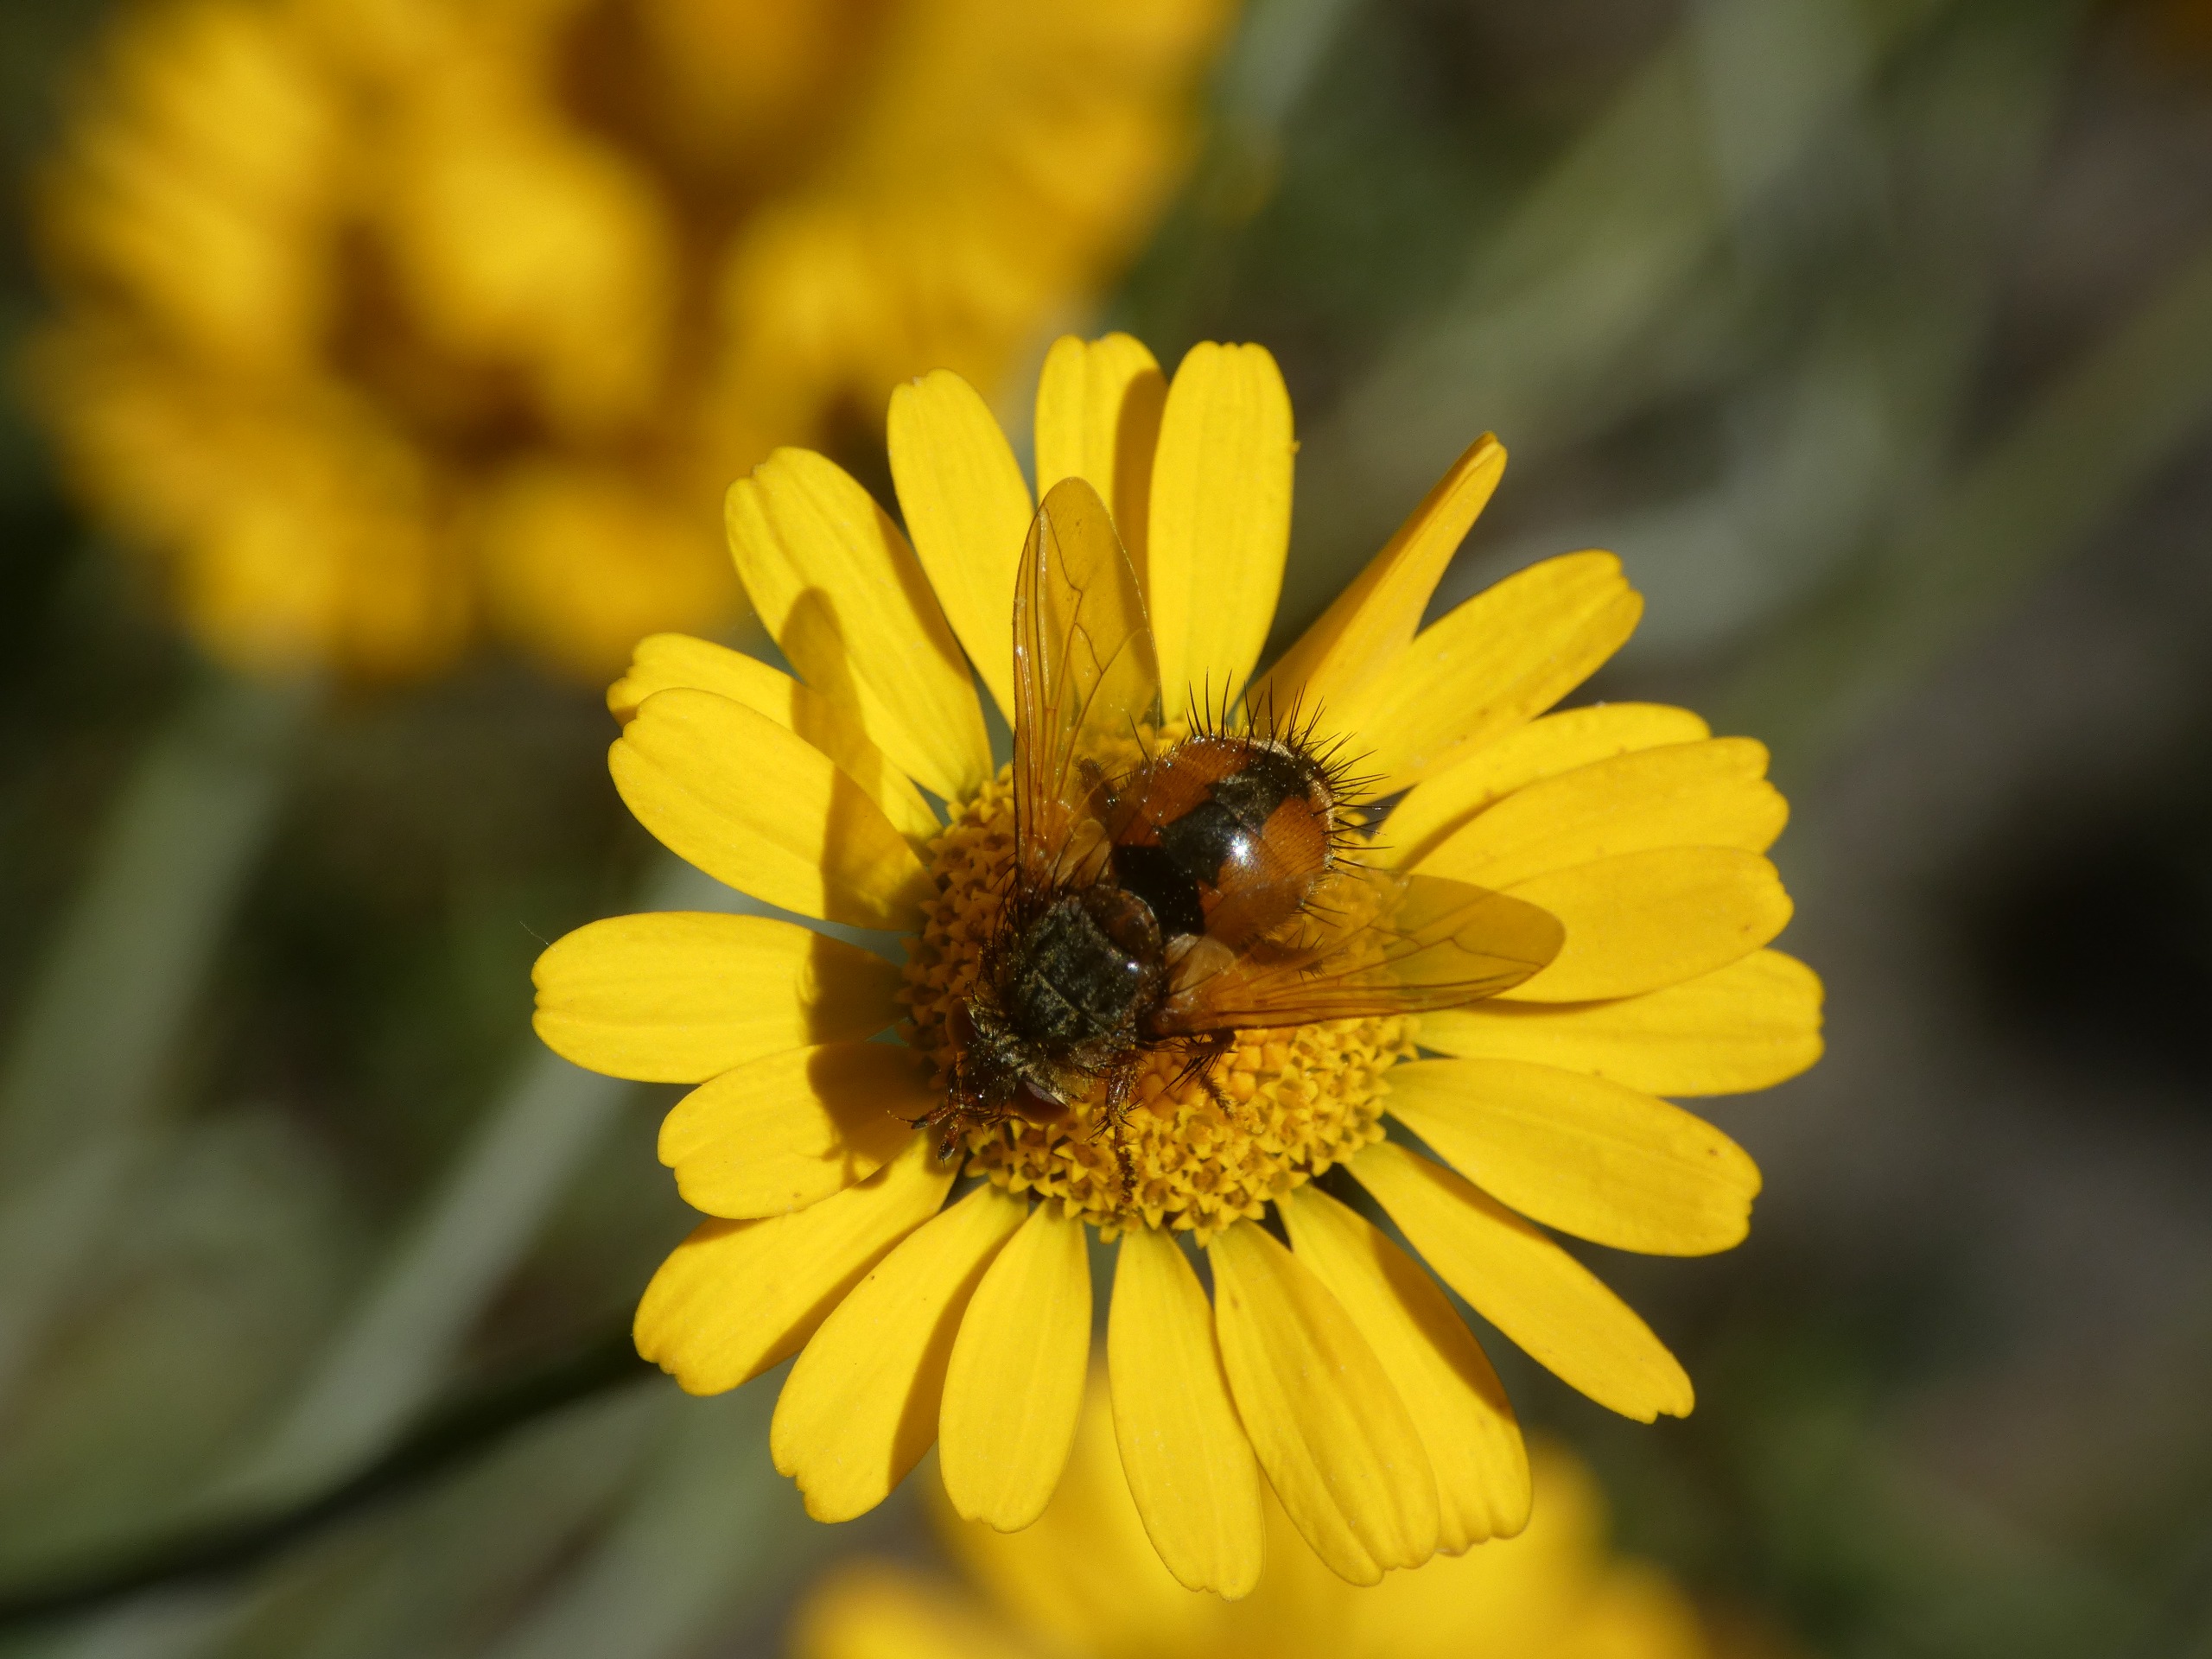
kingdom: Animalia
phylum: Arthropoda
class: Insecta
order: Diptera
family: Tachinidae
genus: Tachina
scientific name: Tachina fera
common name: Mellemfluen oskar
